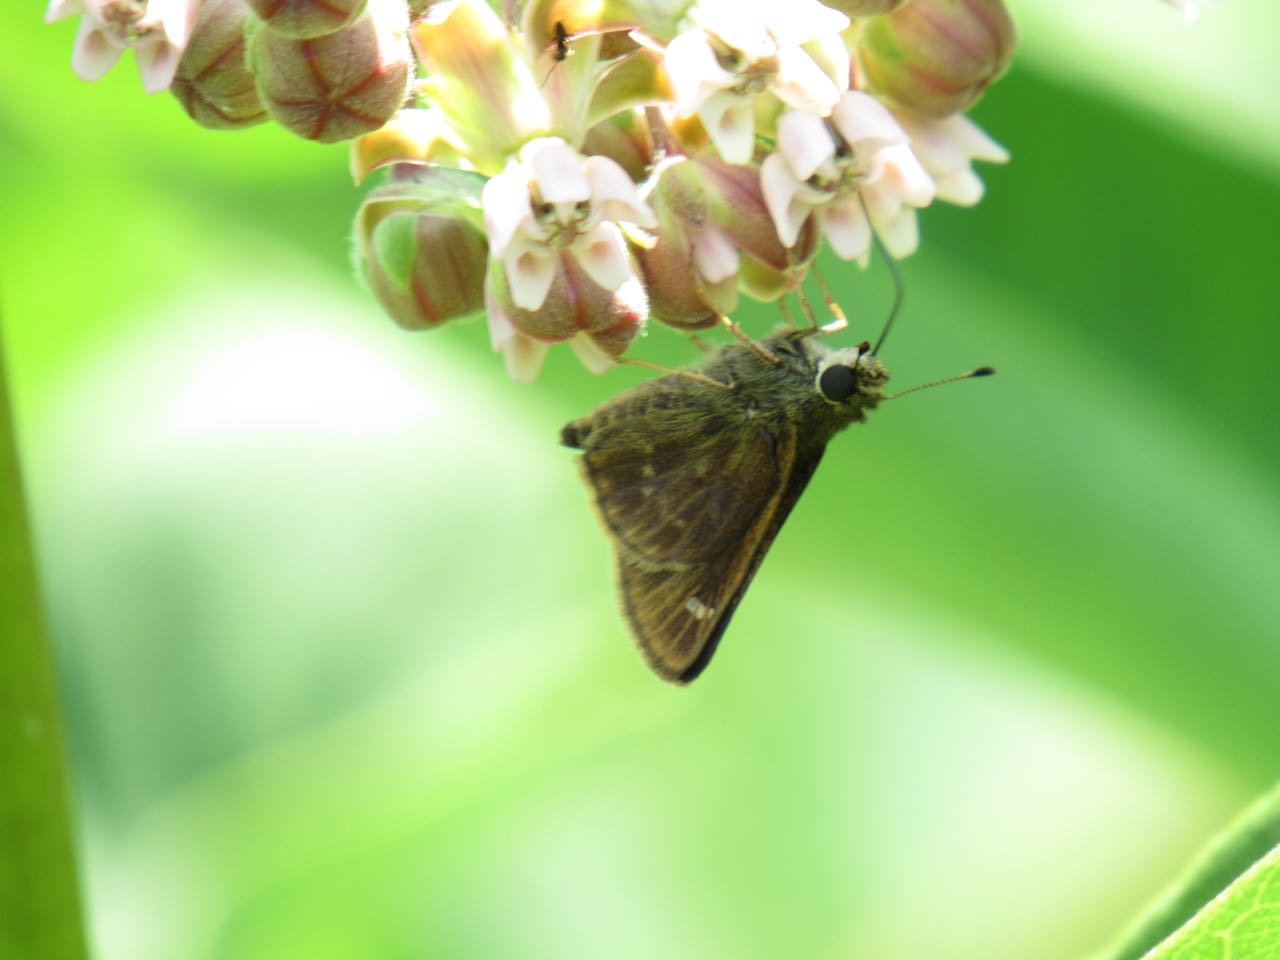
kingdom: Animalia
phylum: Arthropoda
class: Insecta
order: Lepidoptera
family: Hesperiidae
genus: Vernia
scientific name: Vernia verna
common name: Little Glassywing
